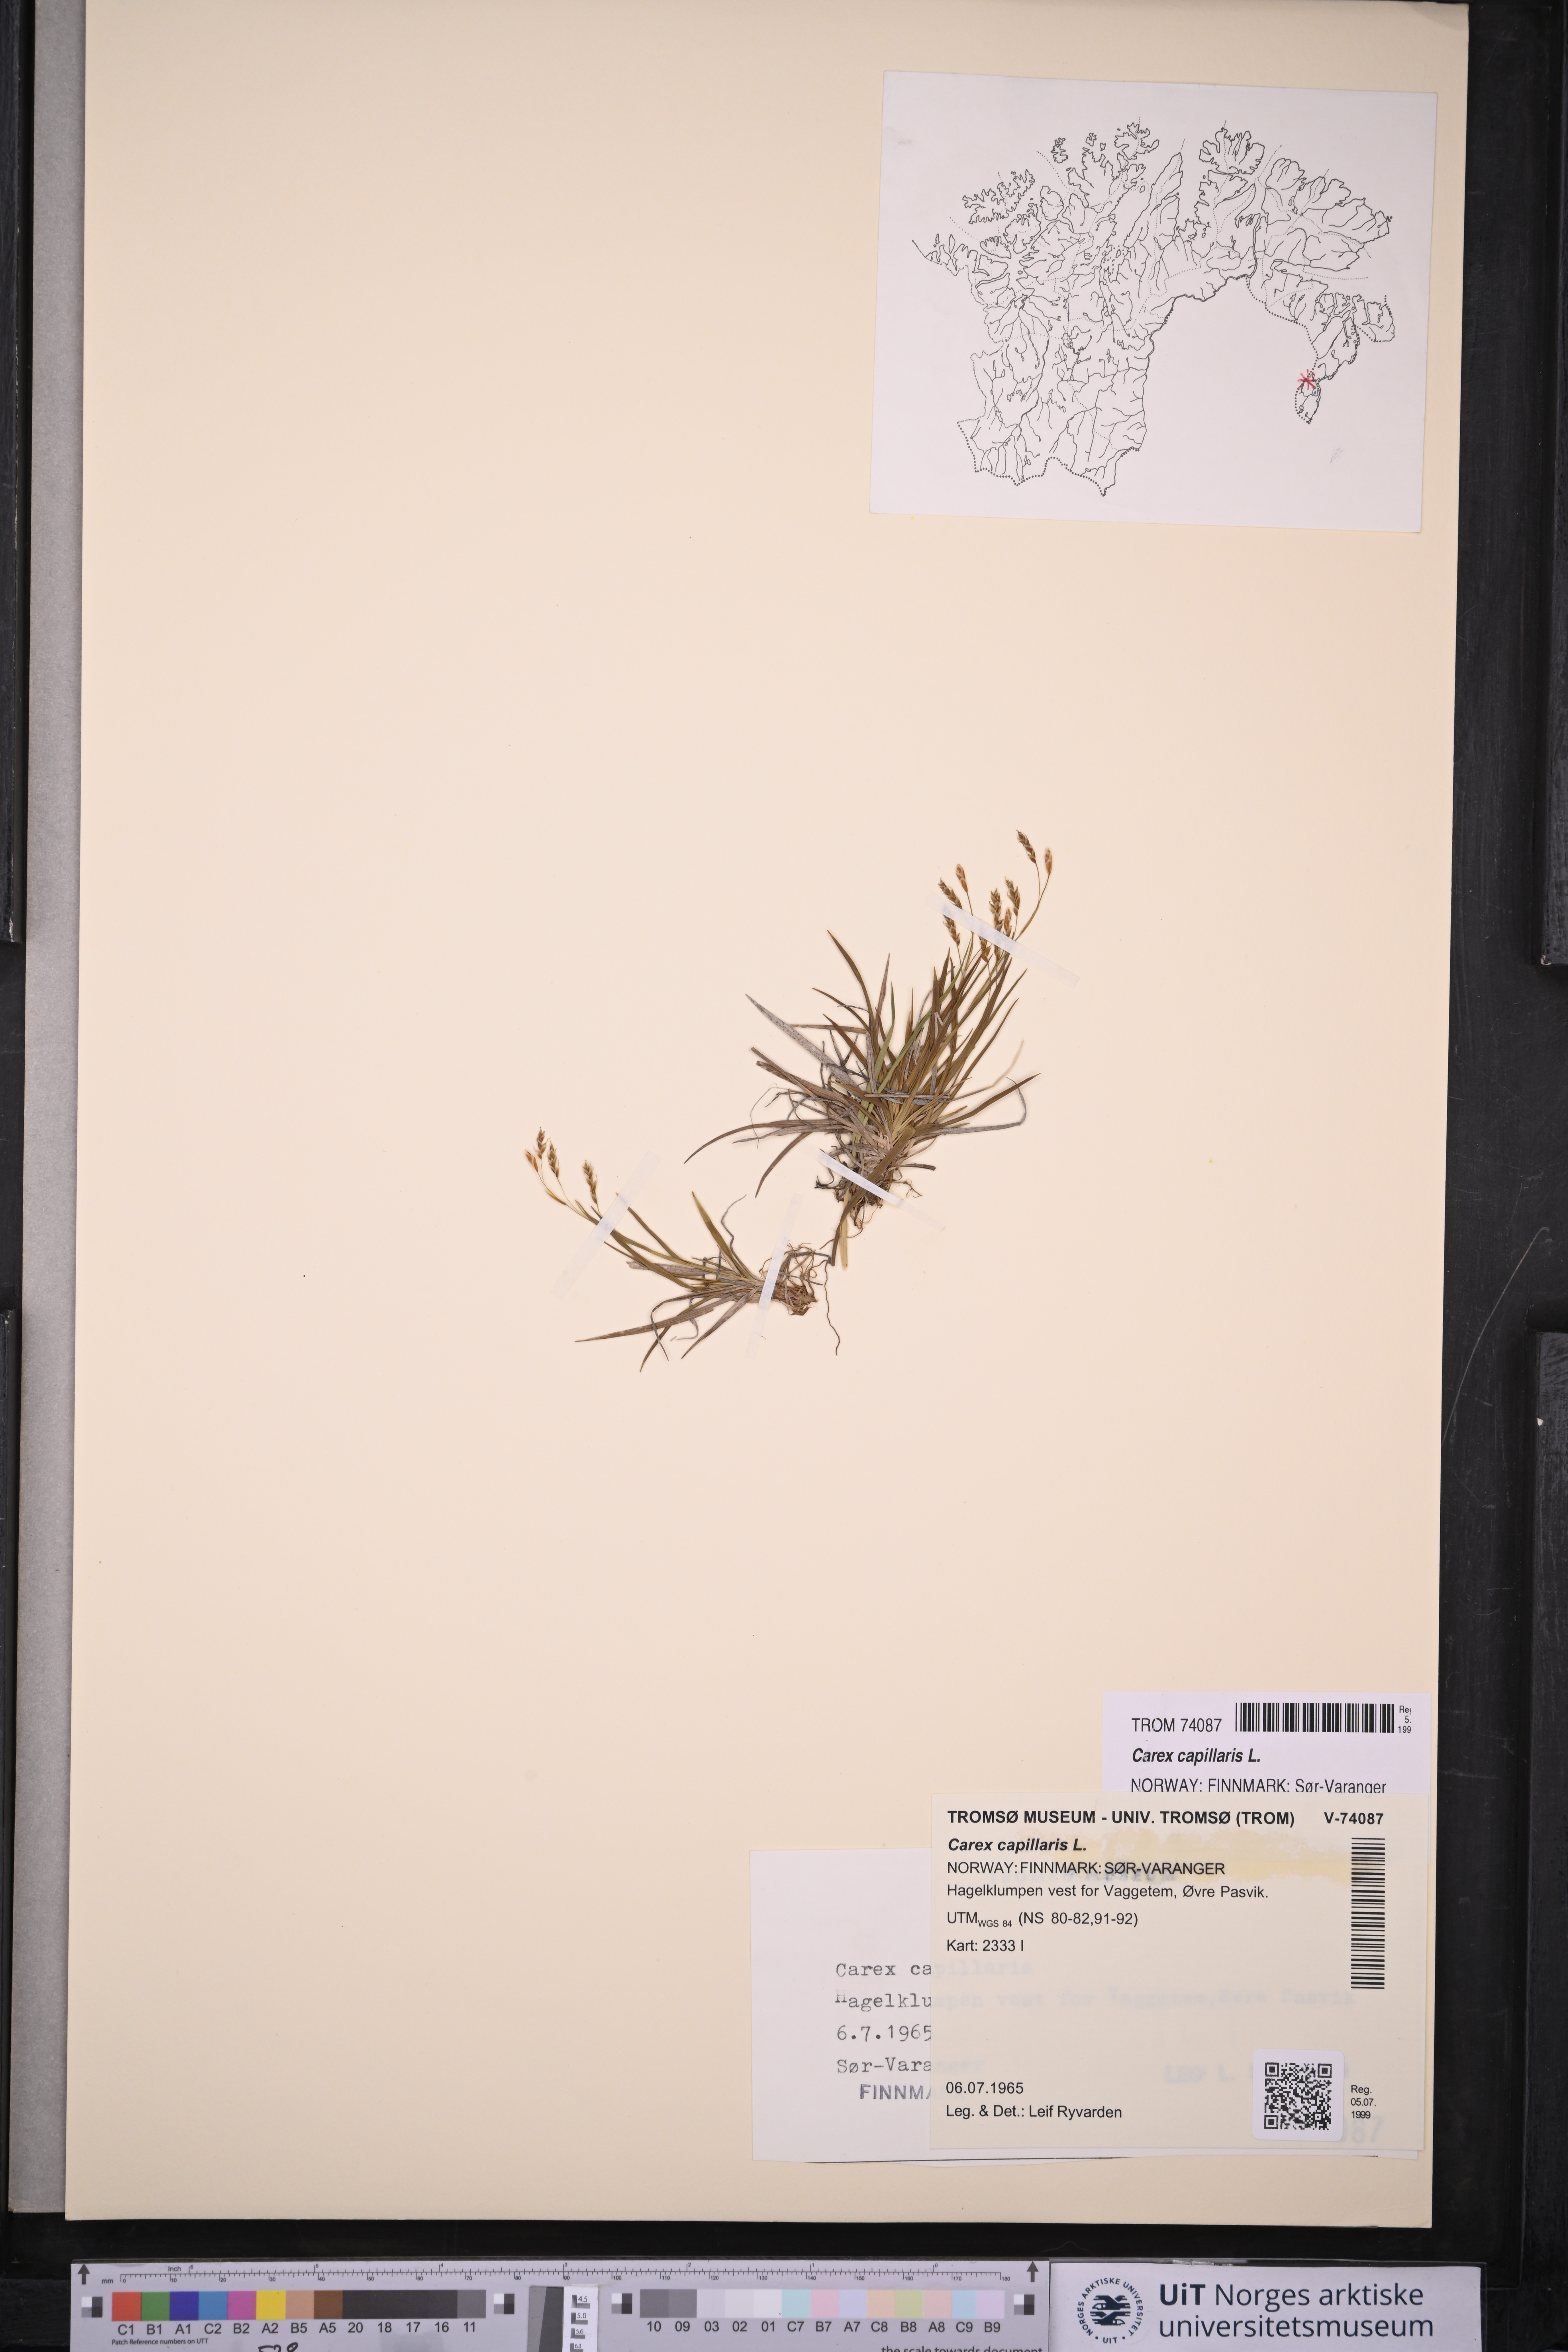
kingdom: Plantae
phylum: Tracheophyta
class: Liliopsida
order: Poales
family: Cyperaceae
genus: Carex
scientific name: Carex capillaris
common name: Hair sedge
